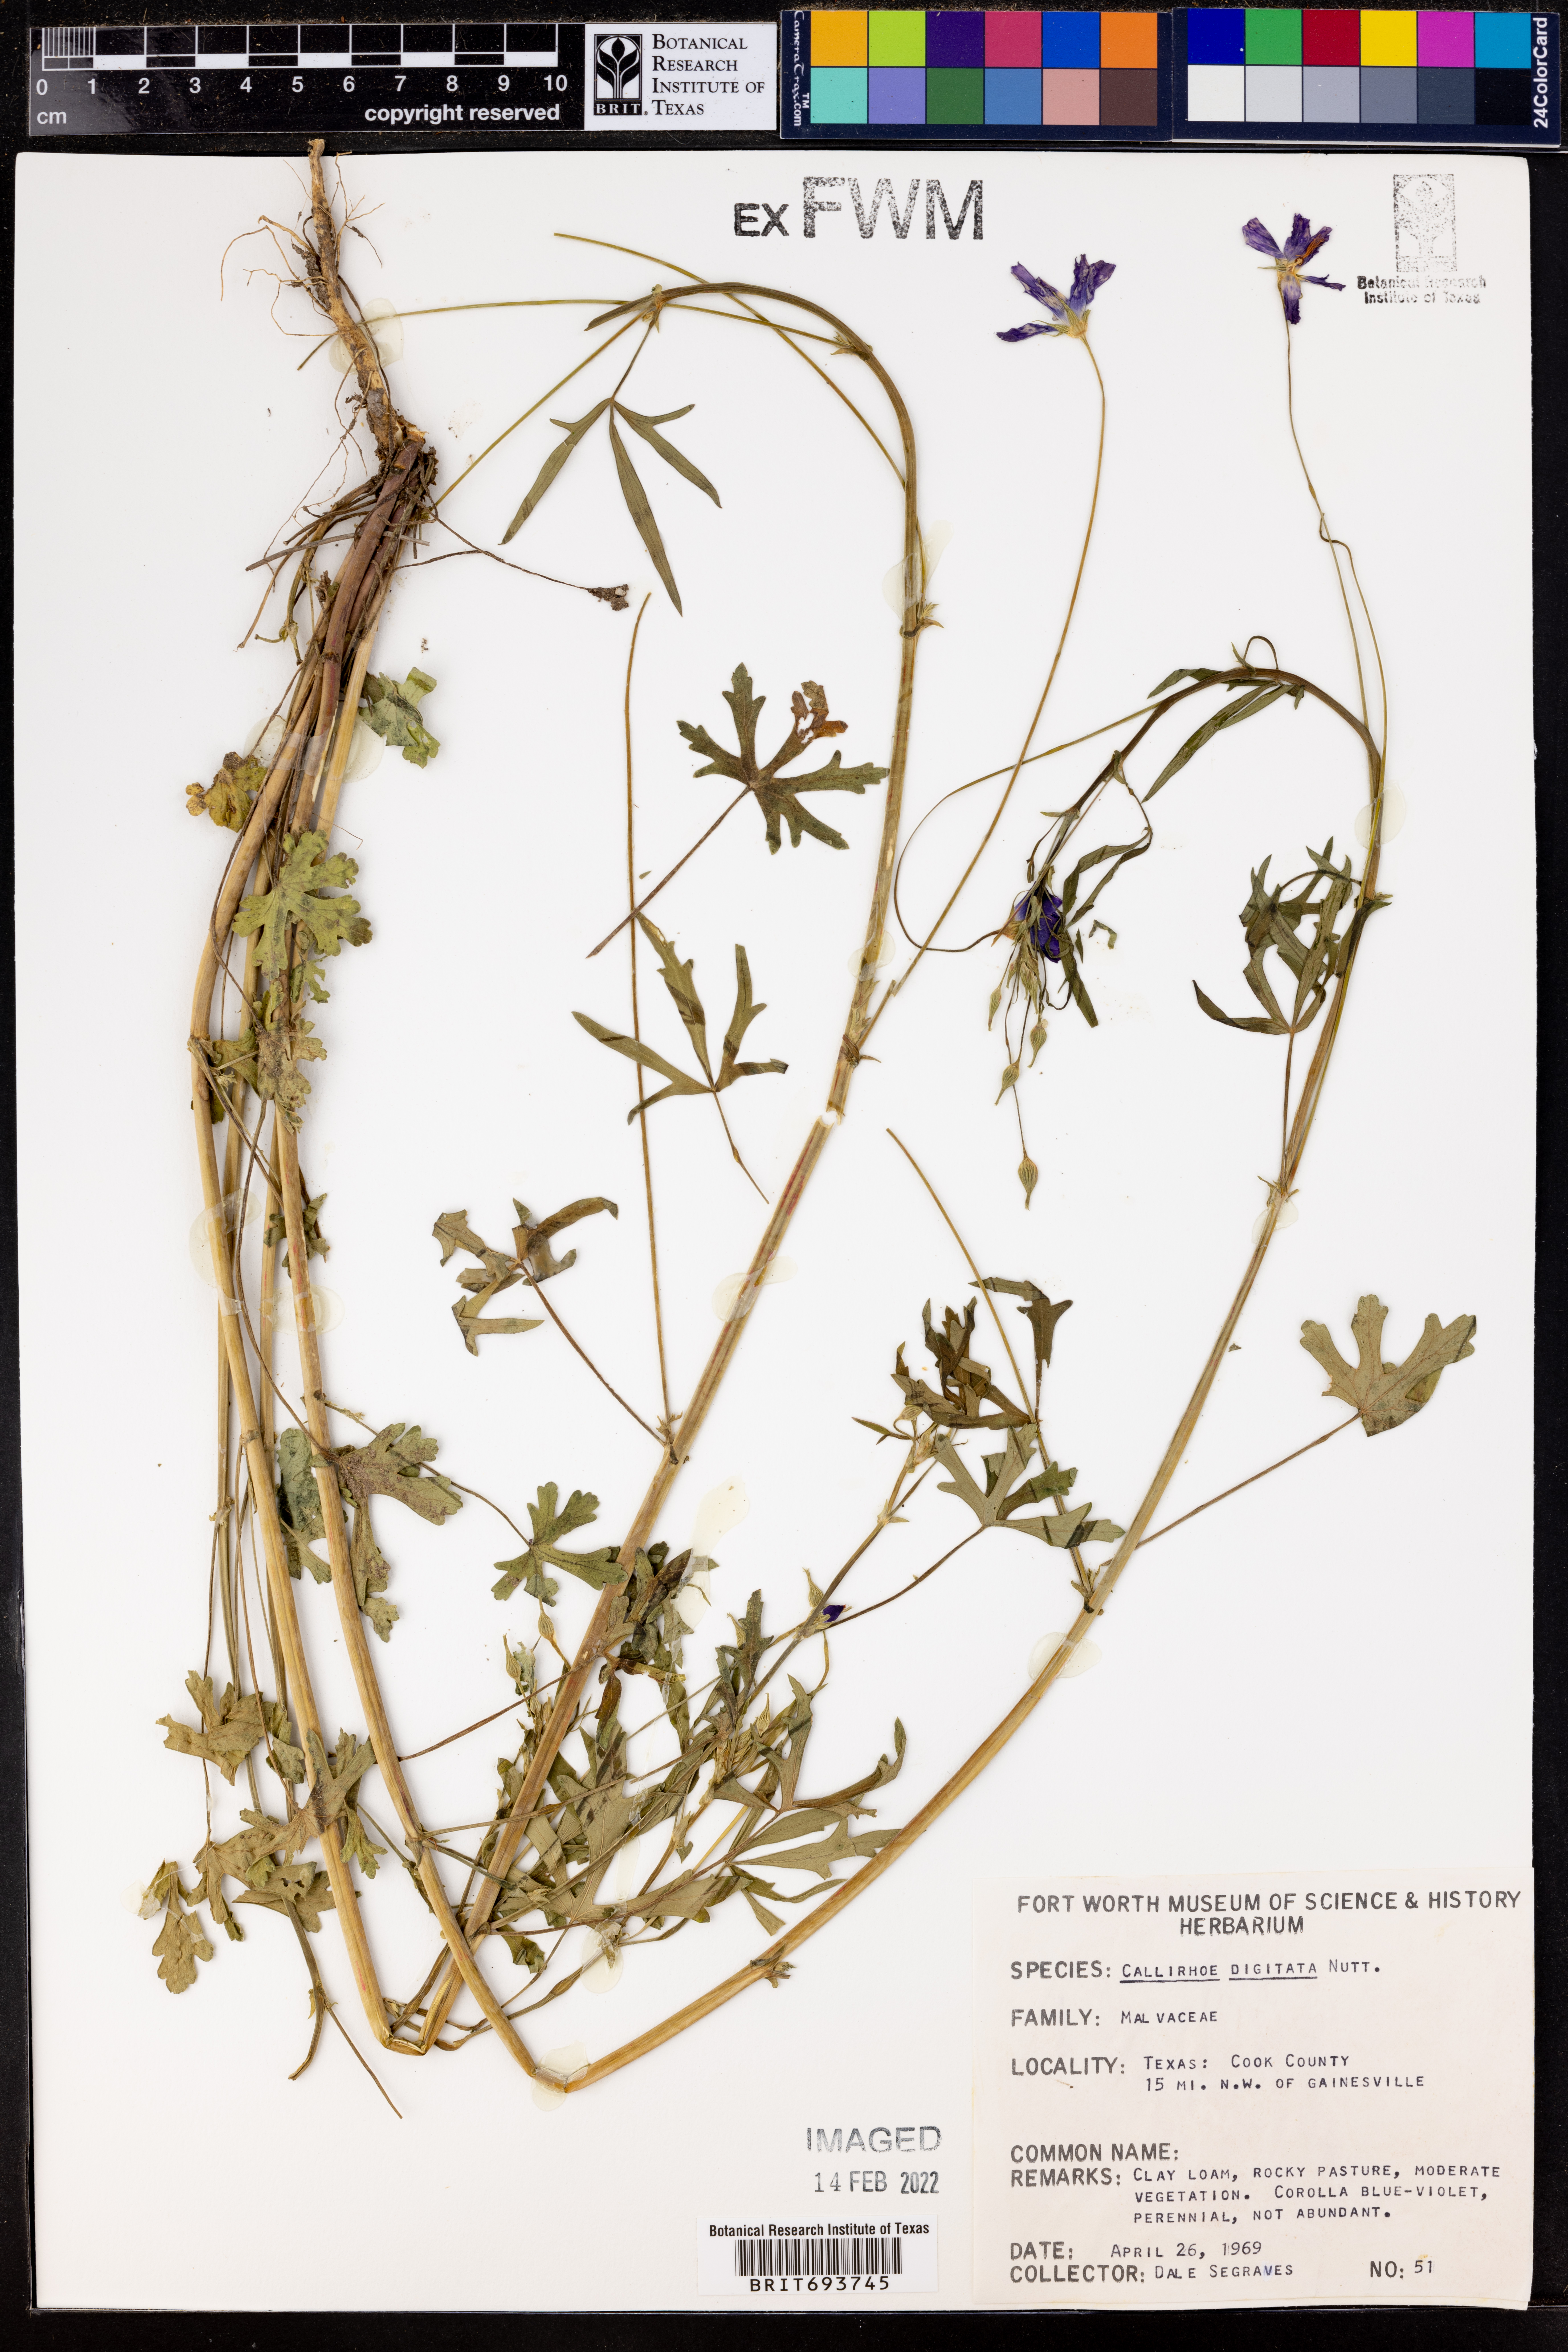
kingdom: Plantae
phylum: Tracheophyta
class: Magnoliopsida
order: Malvales
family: Malvaceae
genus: Callirhoe
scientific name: Callirhoe digitata
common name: Finger poppy-mallow
